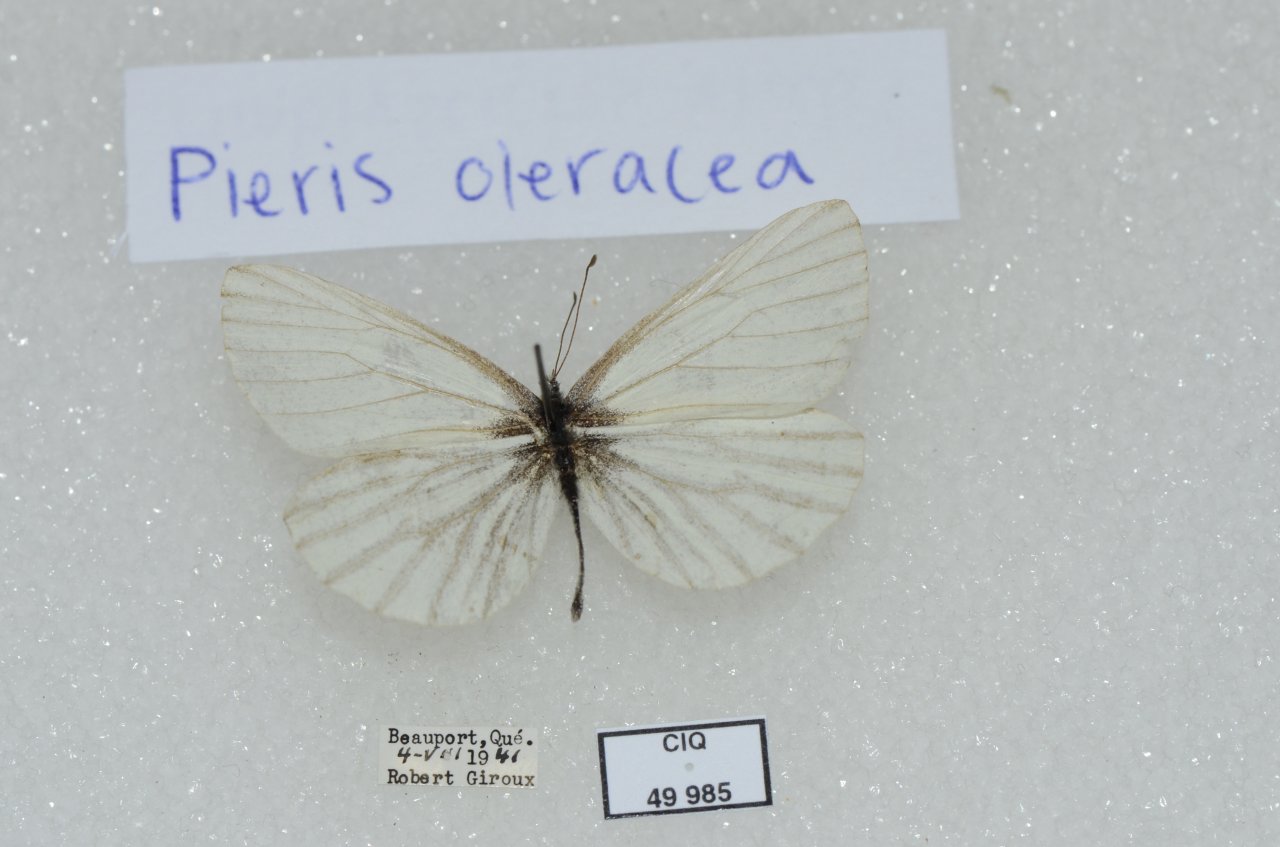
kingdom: Animalia
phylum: Arthropoda
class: Insecta
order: Lepidoptera
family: Pieridae
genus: Pieris
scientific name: Pieris oleracea
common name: Mustard White
